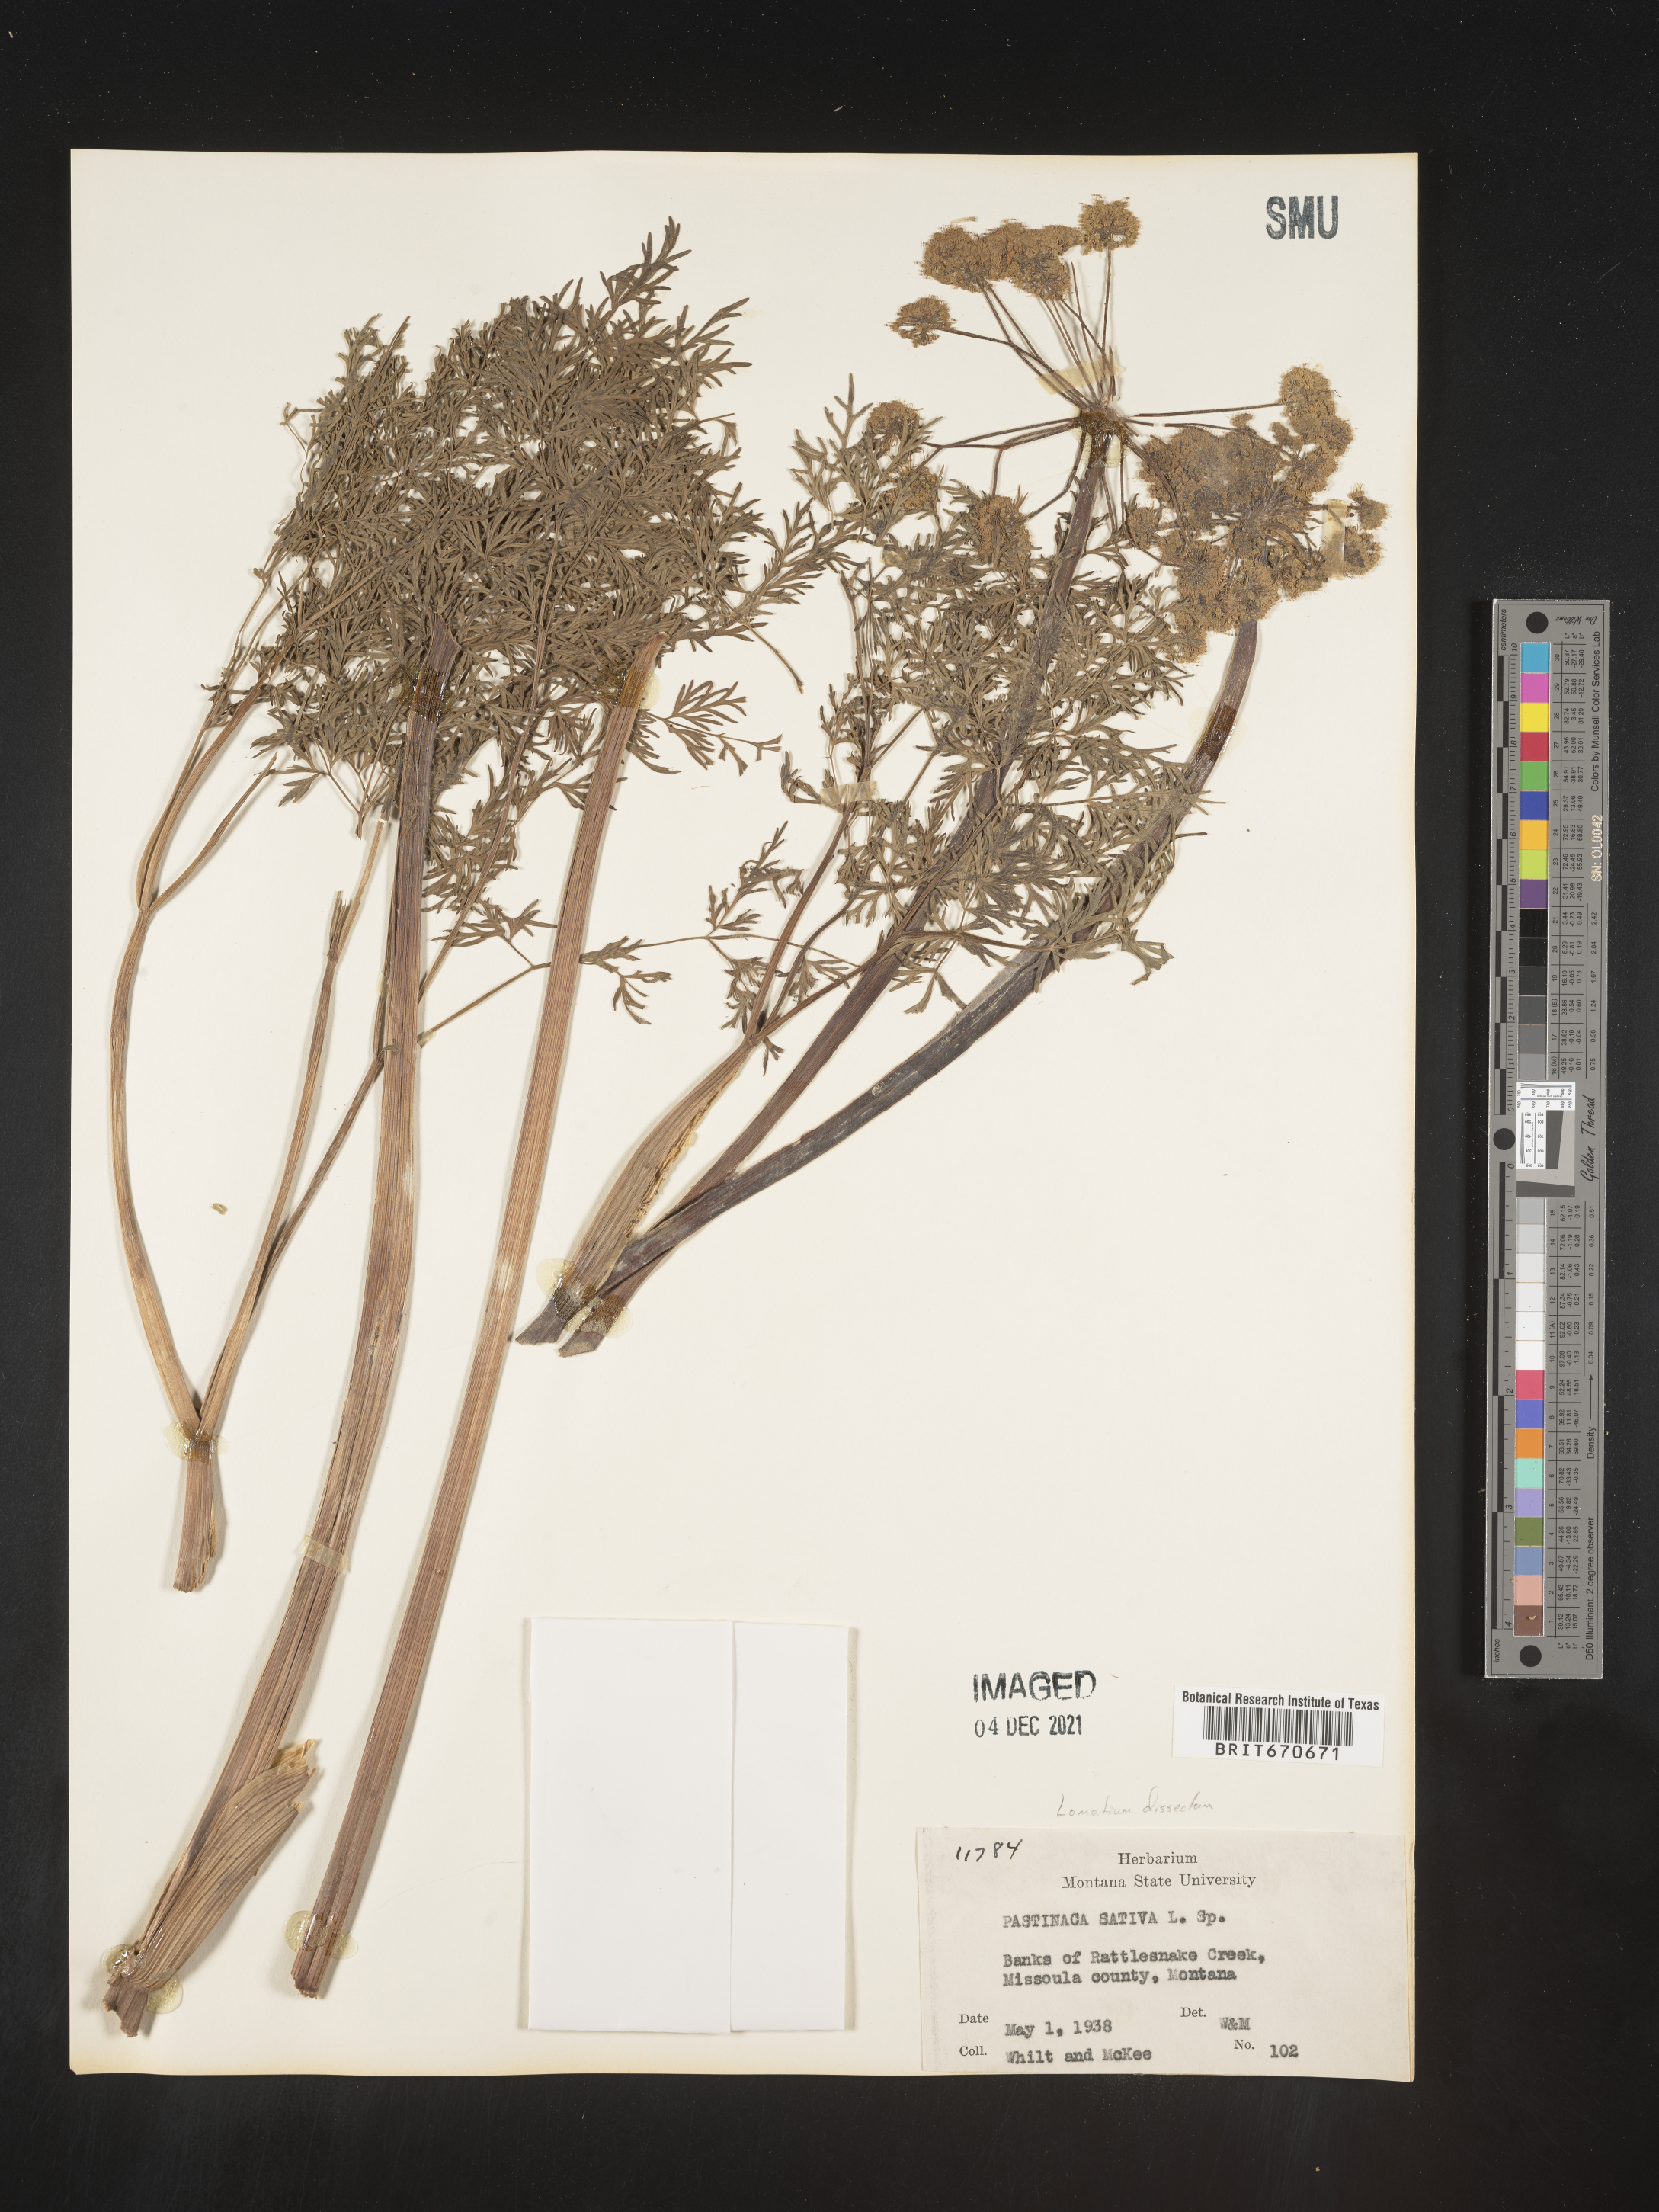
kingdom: Plantae
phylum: Tracheophyta
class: Magnoliopsida
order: Apiales
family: Apiaceae
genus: Lomatium
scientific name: Lomatium dissectum
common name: Lomatium
